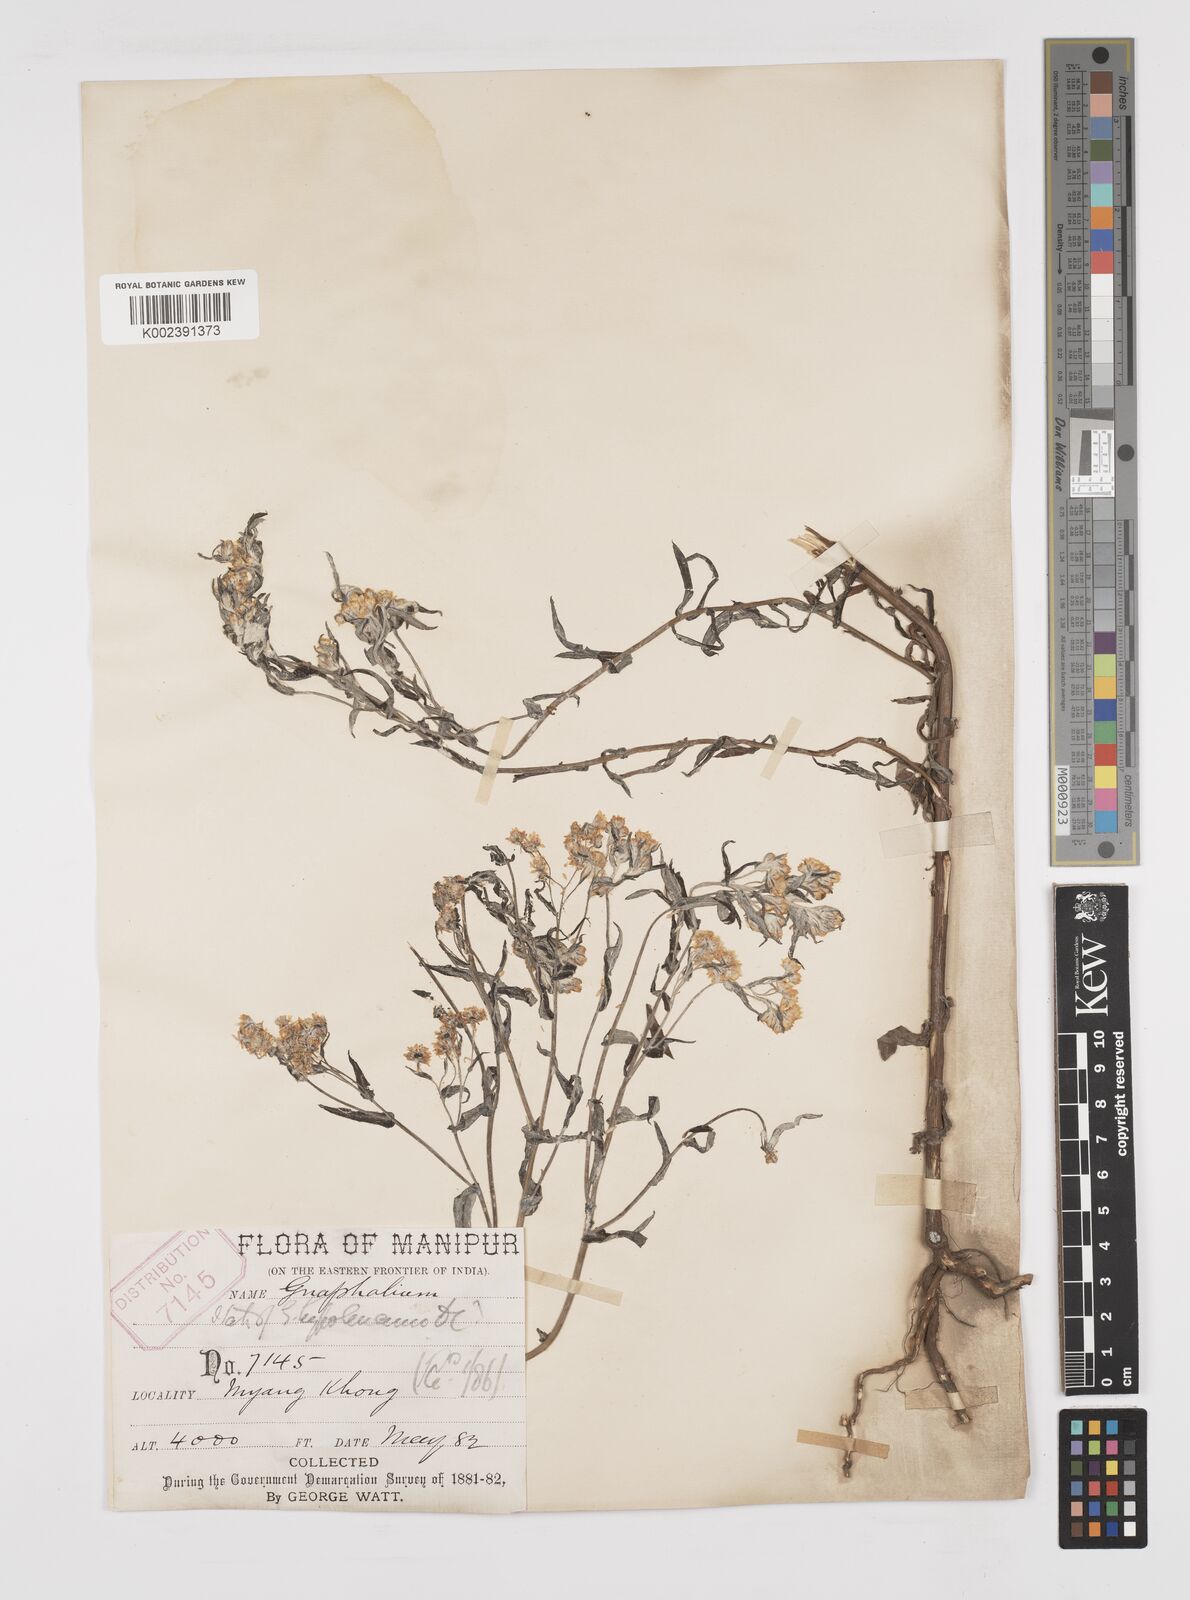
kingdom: Plantae
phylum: Tracheophyta
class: Magnoliopsida
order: Asterales
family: Asteraceae
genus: Pseudognaphalium
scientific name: Pseudognaphalium hypoleucum
